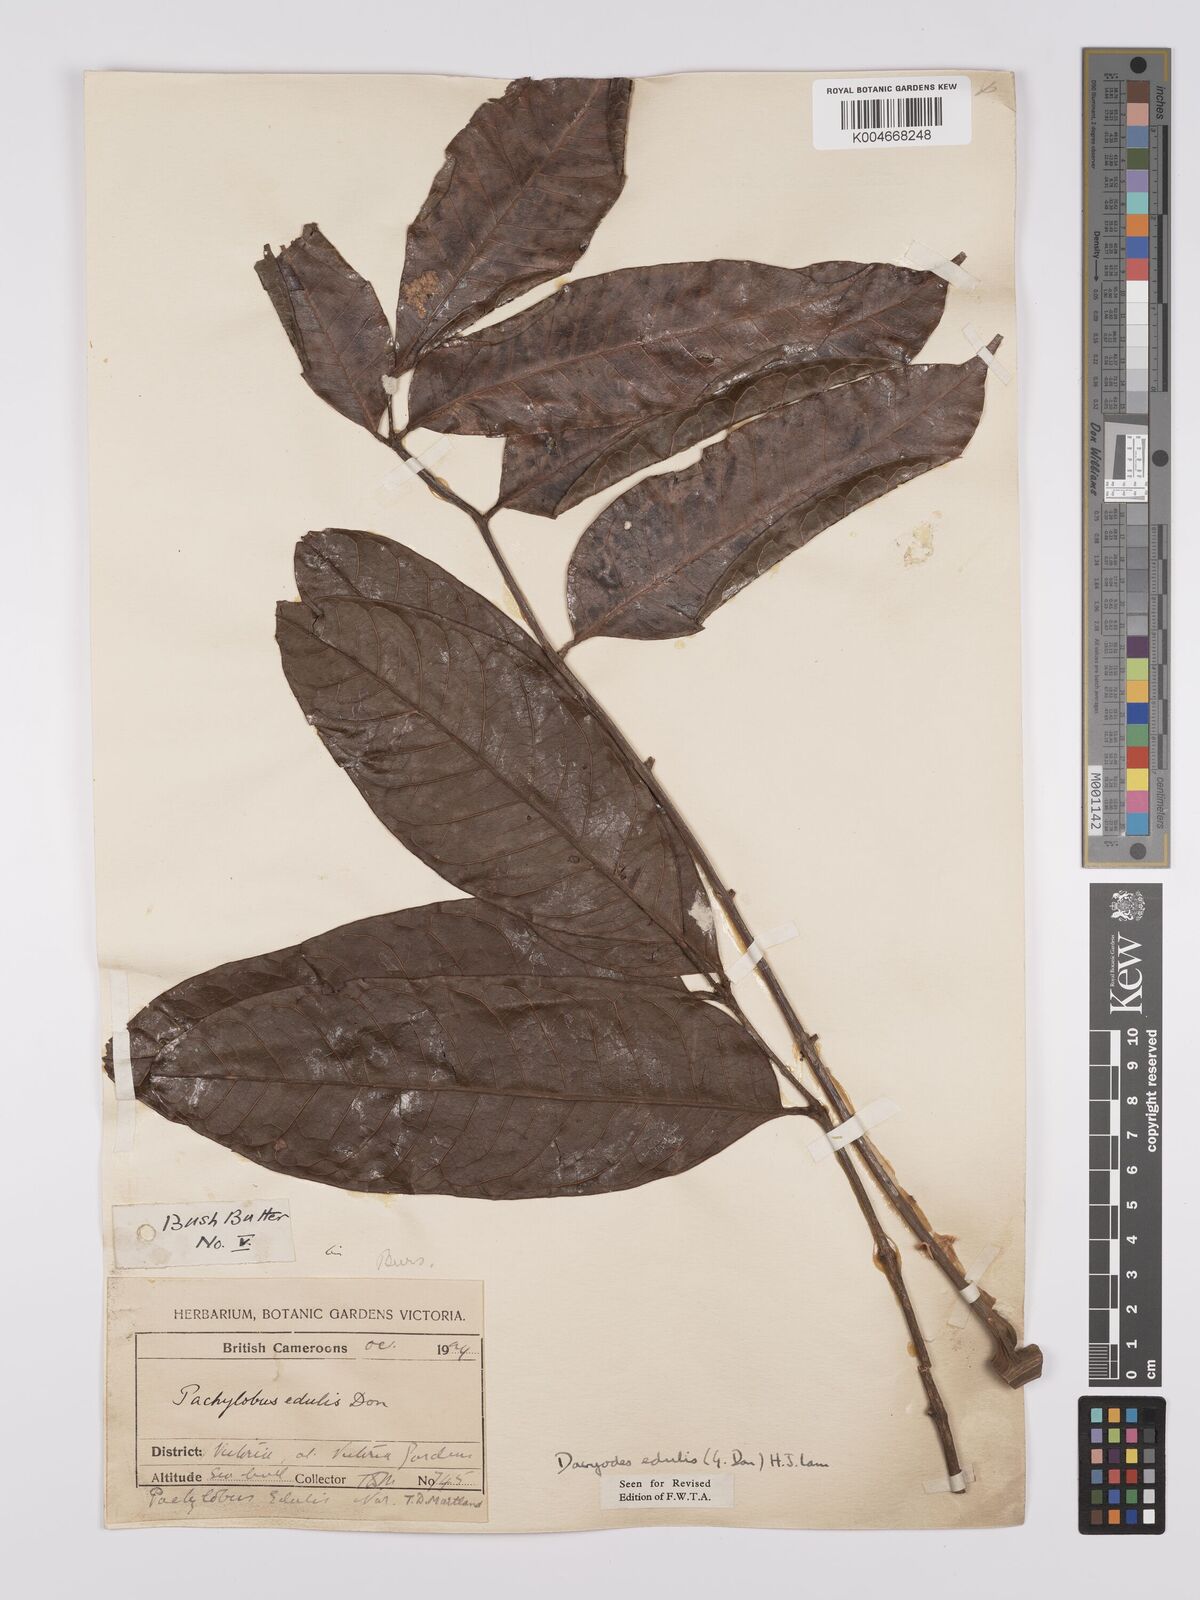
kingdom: Plantae
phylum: Tracheophyta
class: Magnoliopsida
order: Sapindales
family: Burseraceae
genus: Pachylobus
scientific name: Pachylobus edulis
